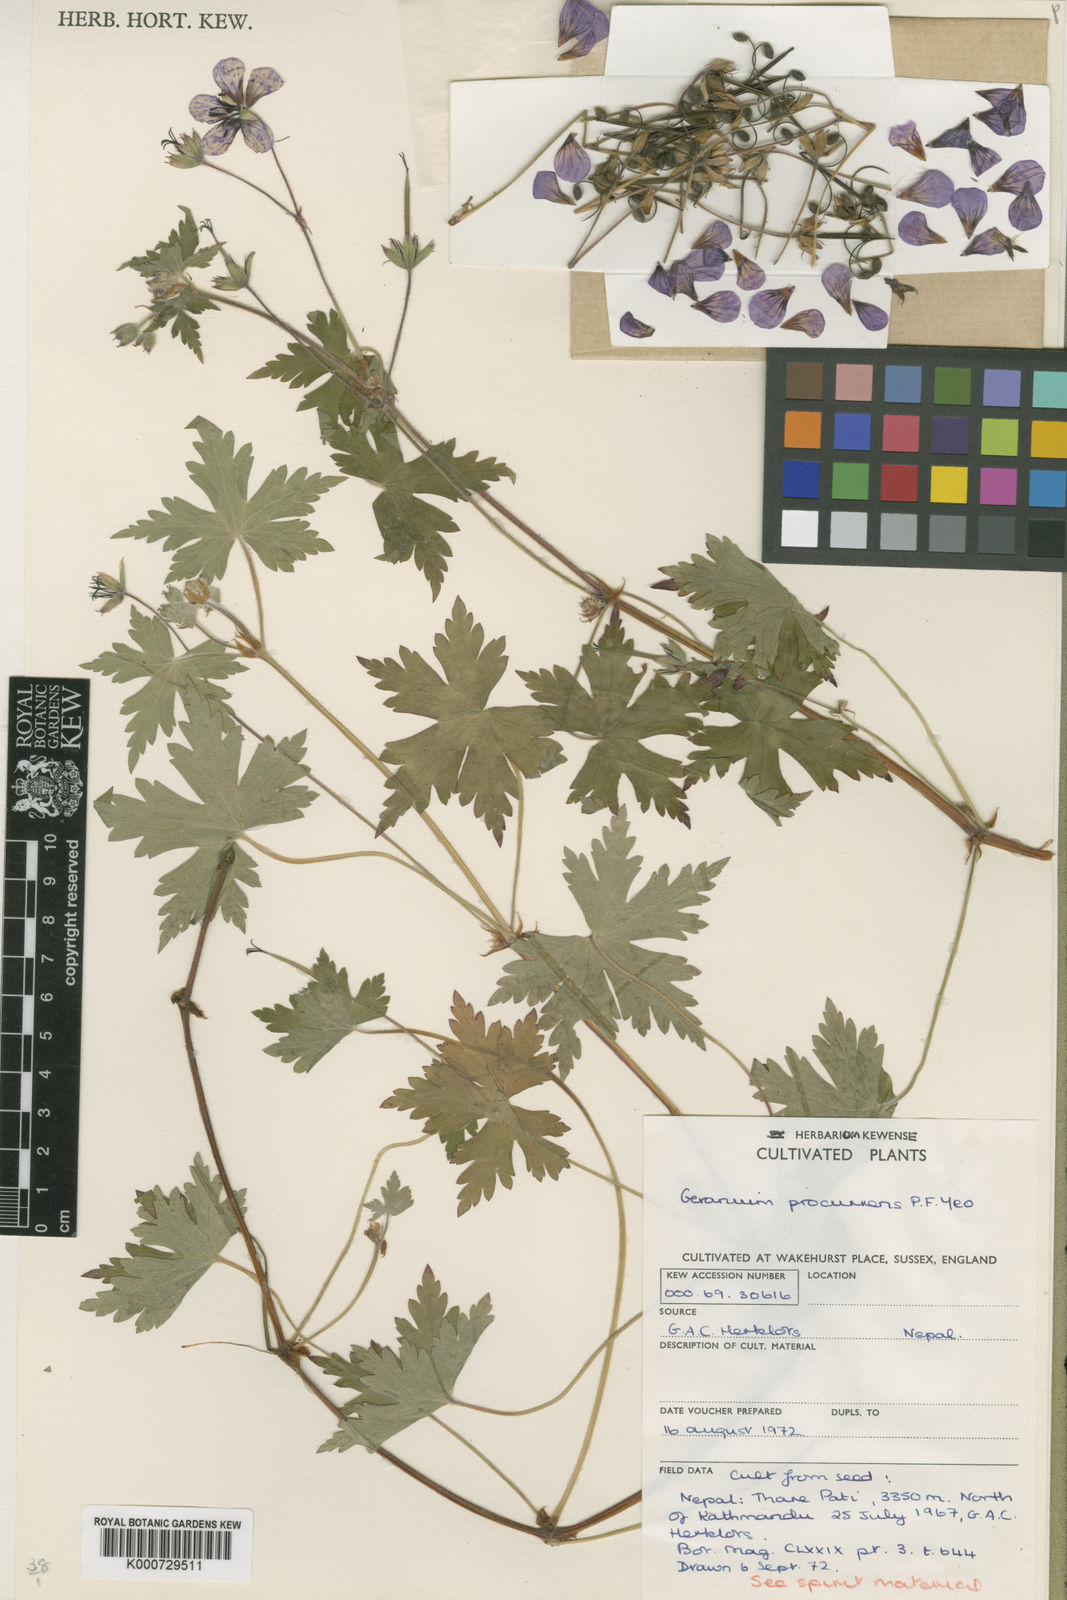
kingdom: Plantae
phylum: Tracheophyta
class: Magnoliopsida
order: Geraniales
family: Geraniaceae
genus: Geranium
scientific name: Geranium procurrens
